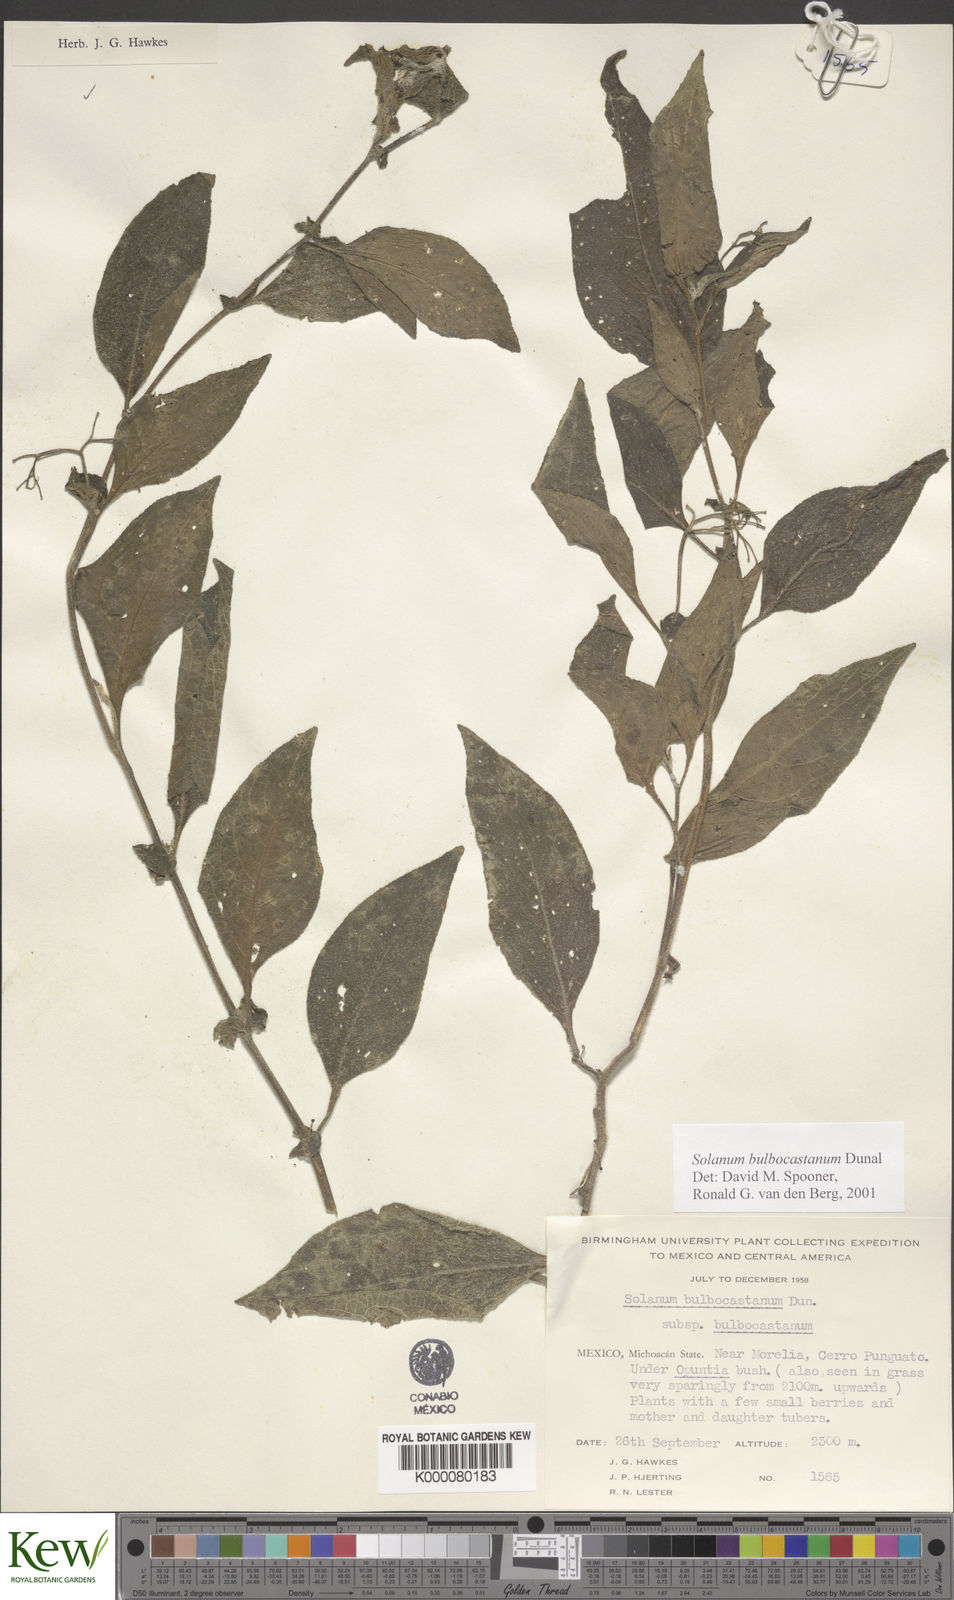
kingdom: Plantae
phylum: Tracheophyta
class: Magnoliopsida
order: Solanales
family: Solanaceae
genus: Solanum
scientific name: Solanum bulbocastanum
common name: Ornamental nightshade
